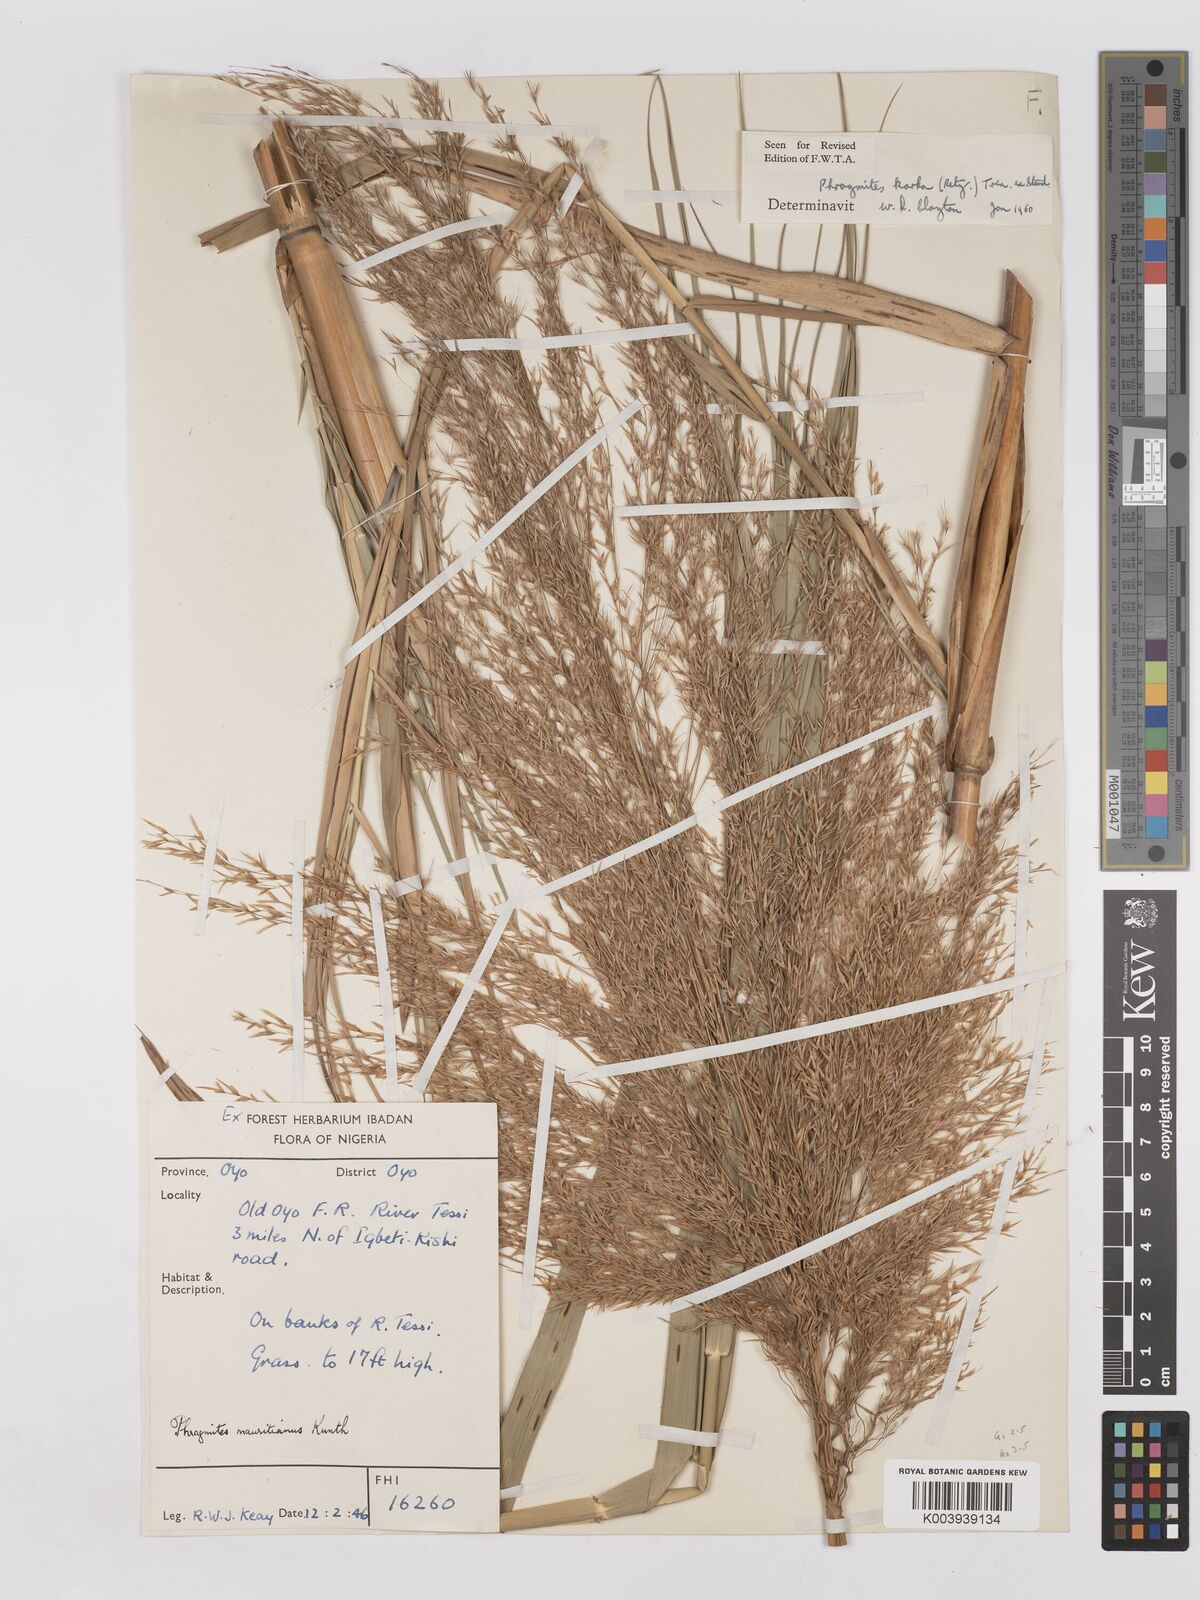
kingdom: Plantae
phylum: Tracheophyta
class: Liliopsida
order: Poales
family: Poaceae
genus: Phragmites
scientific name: Phragmites karka
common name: Tropical reed
